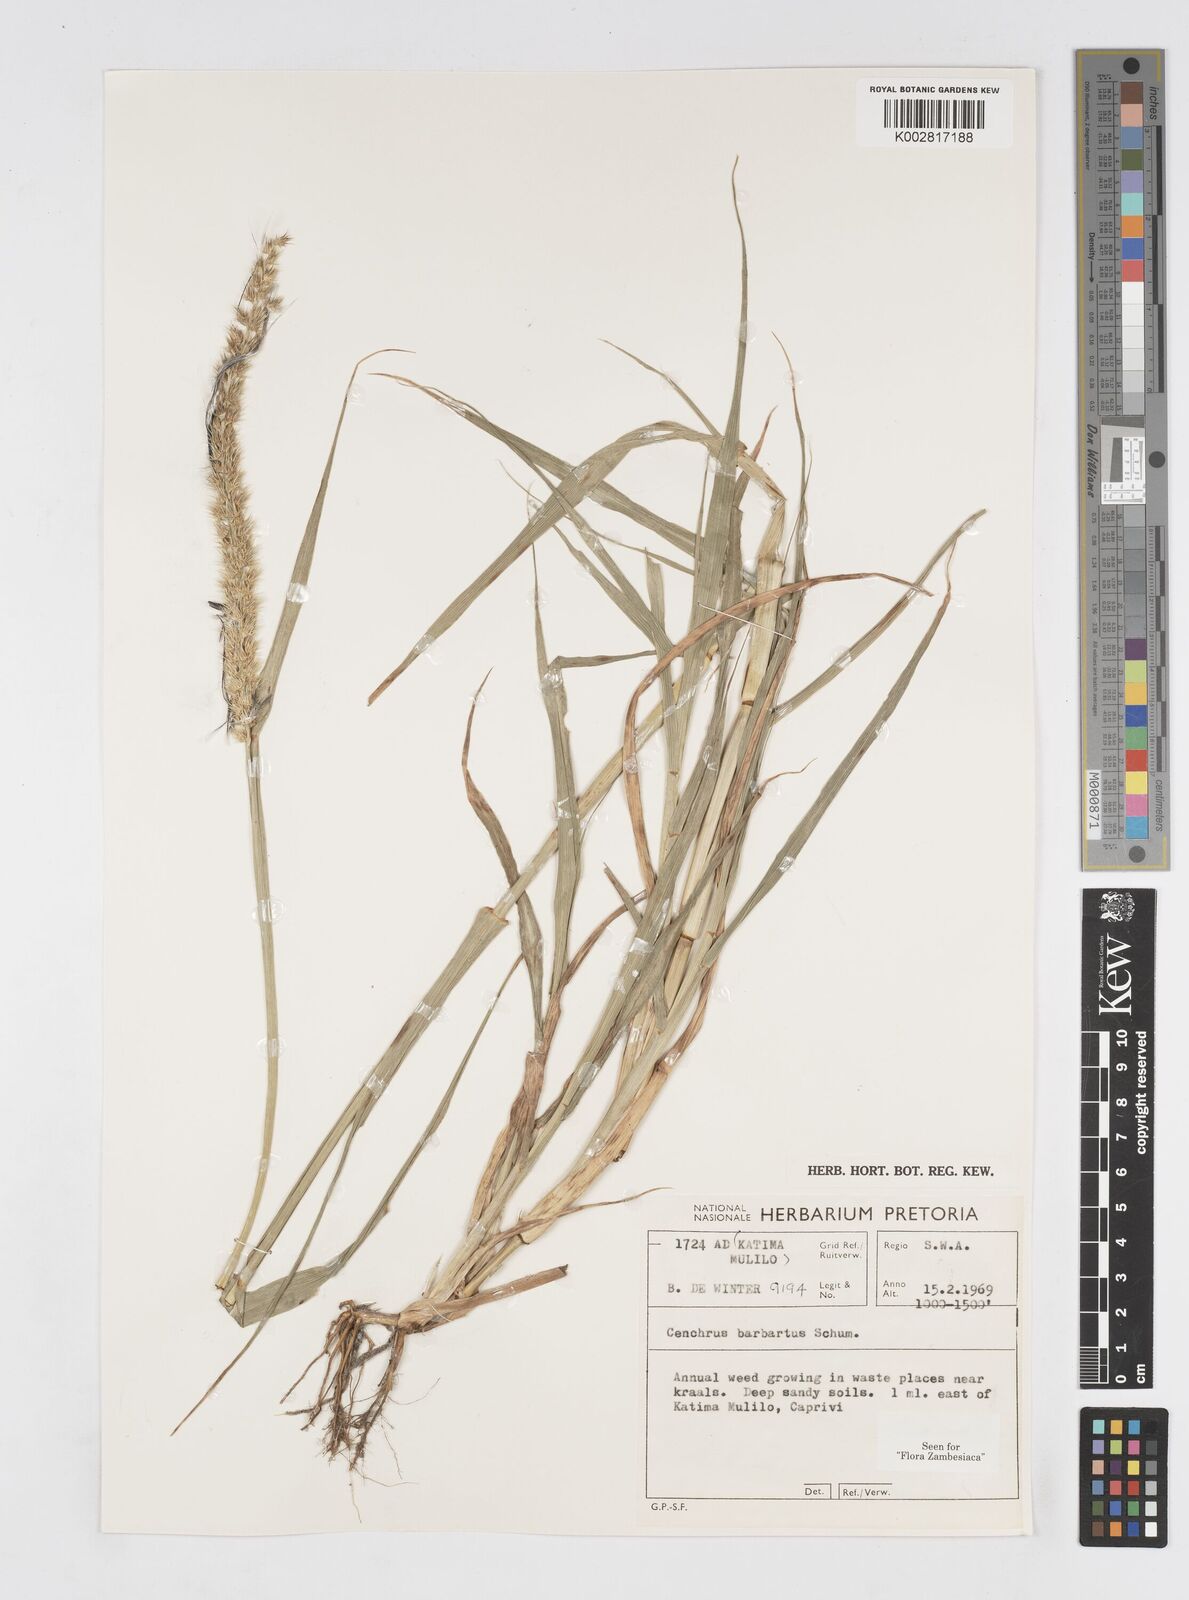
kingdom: Plantae
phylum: Tracheophyta
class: Liliopsida
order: Poales
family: Poaceae
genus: Cenchrus
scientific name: Cenchrus biflorus
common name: Indian sandbur
